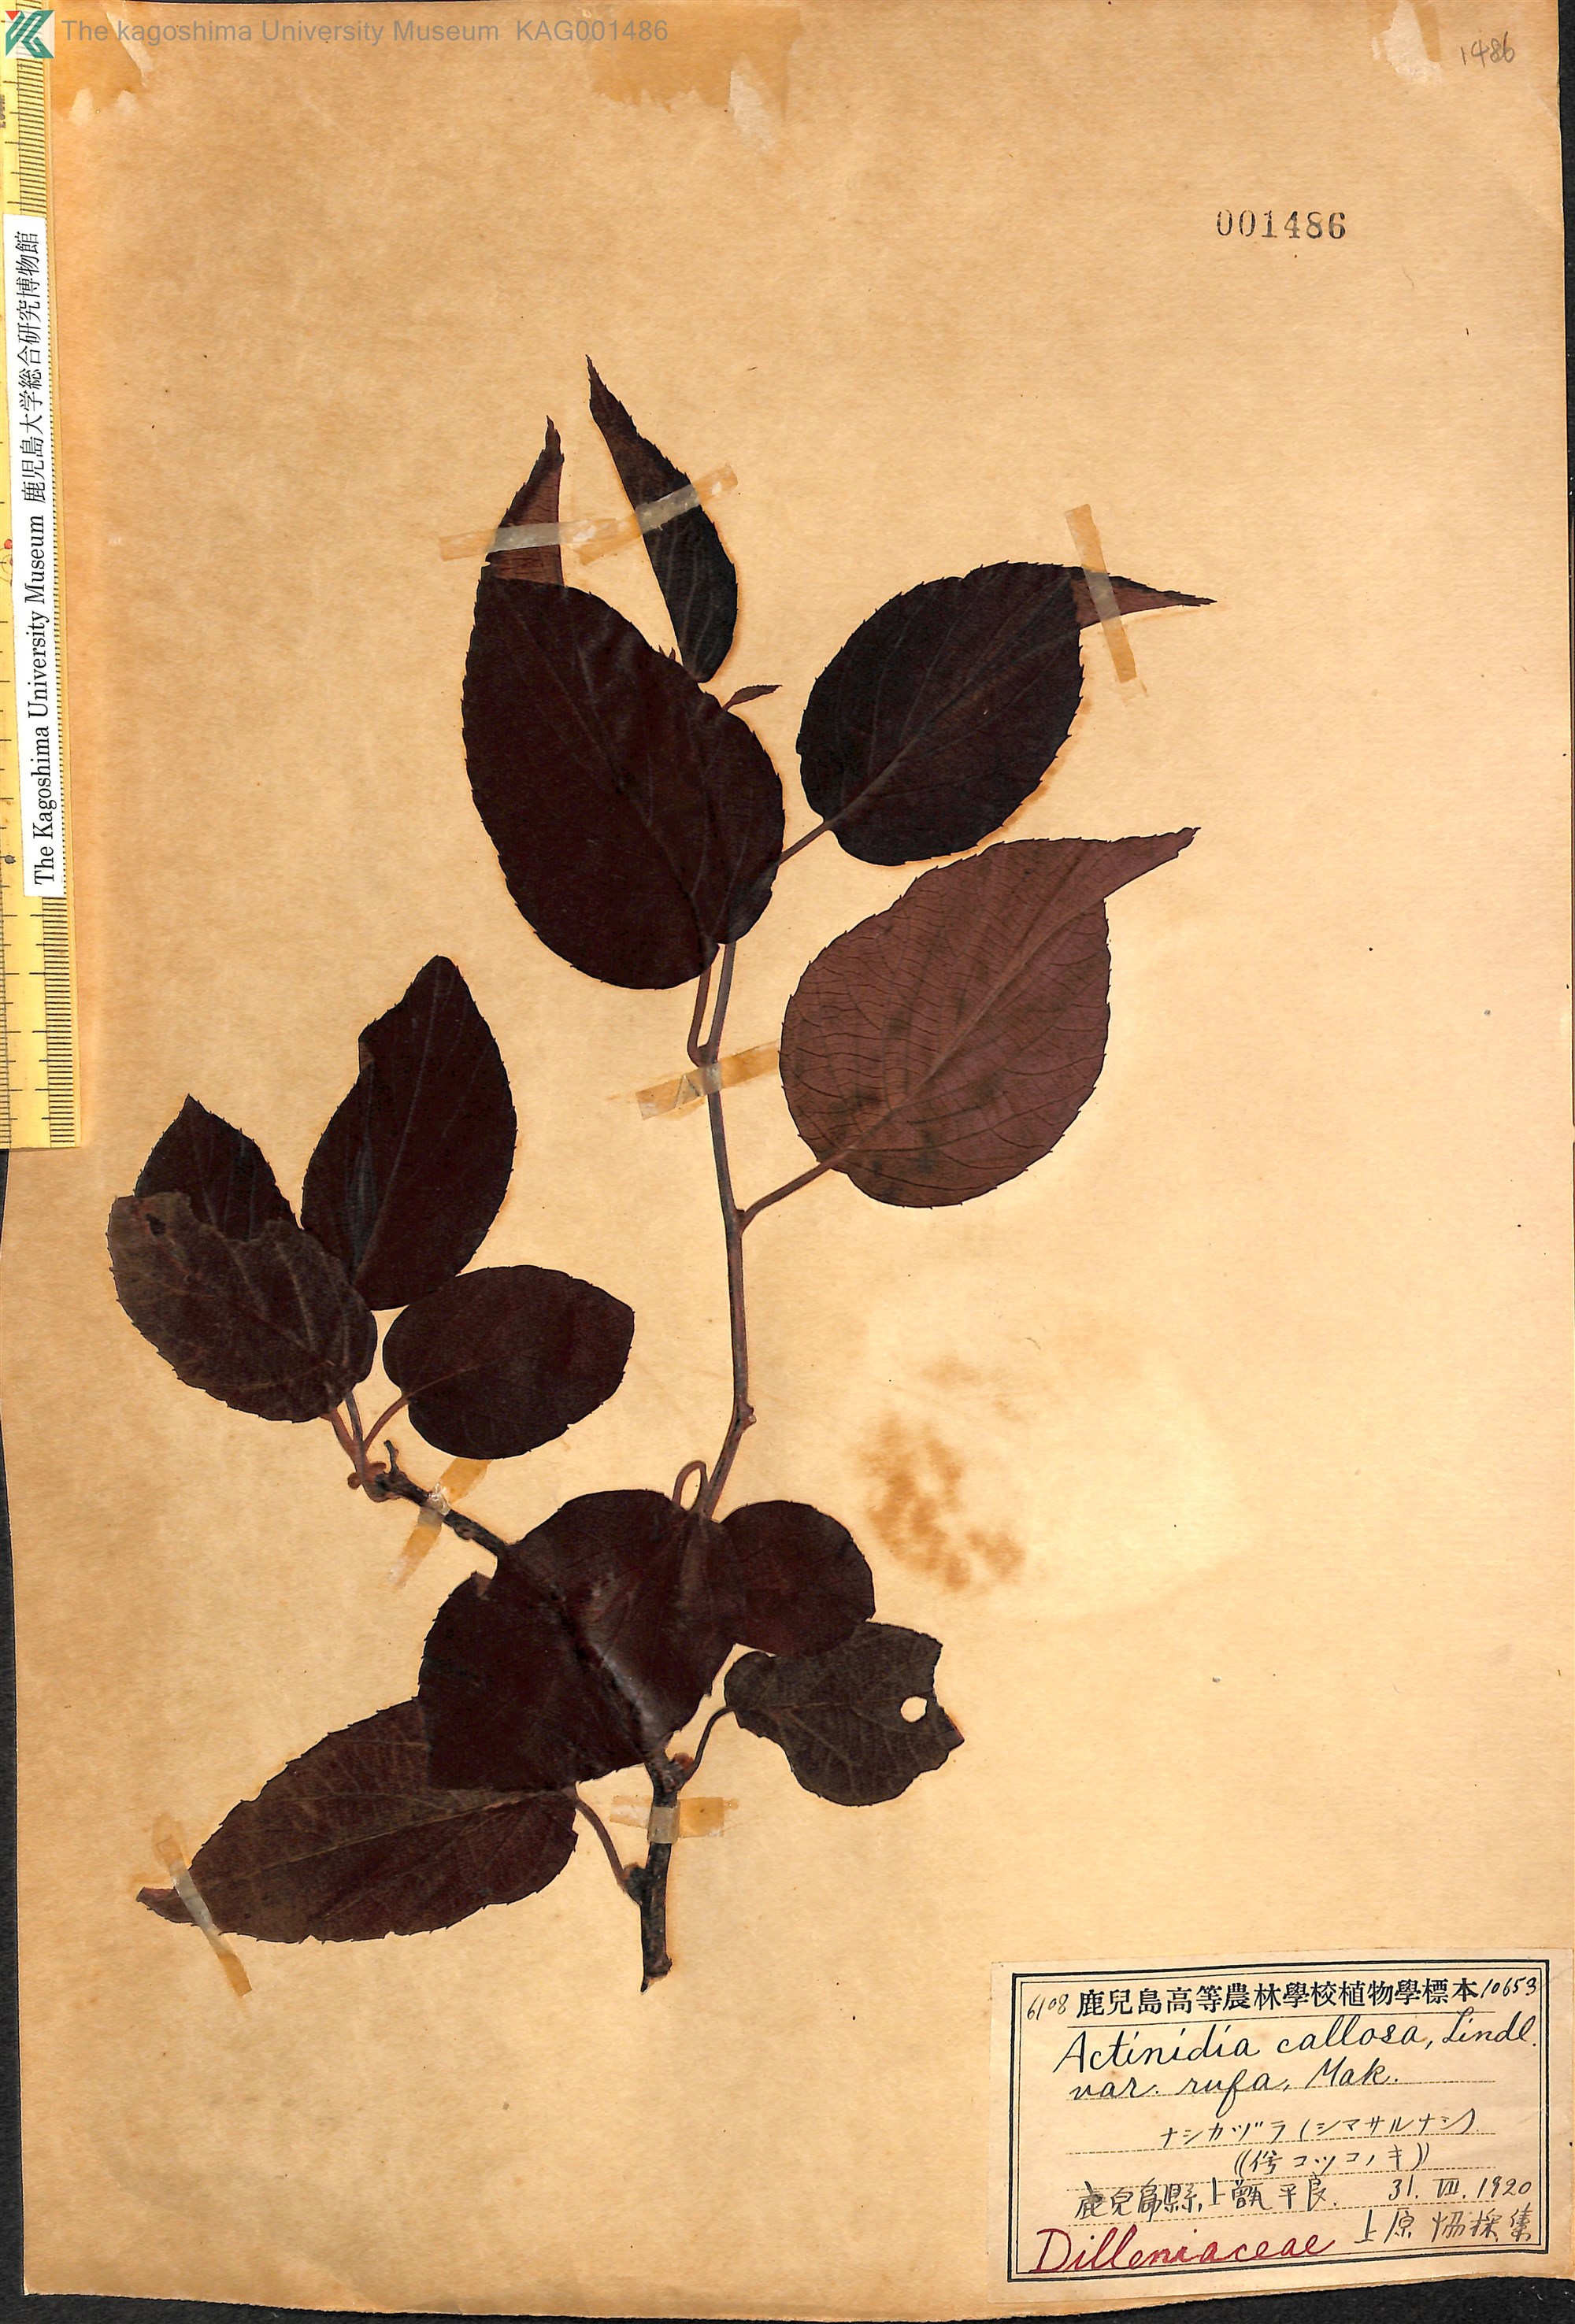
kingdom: Plantae
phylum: Tracheophyta
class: Magnoliopsida
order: Ericales
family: Actinidiaceae
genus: Actinidia
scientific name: Actinidia rufa
